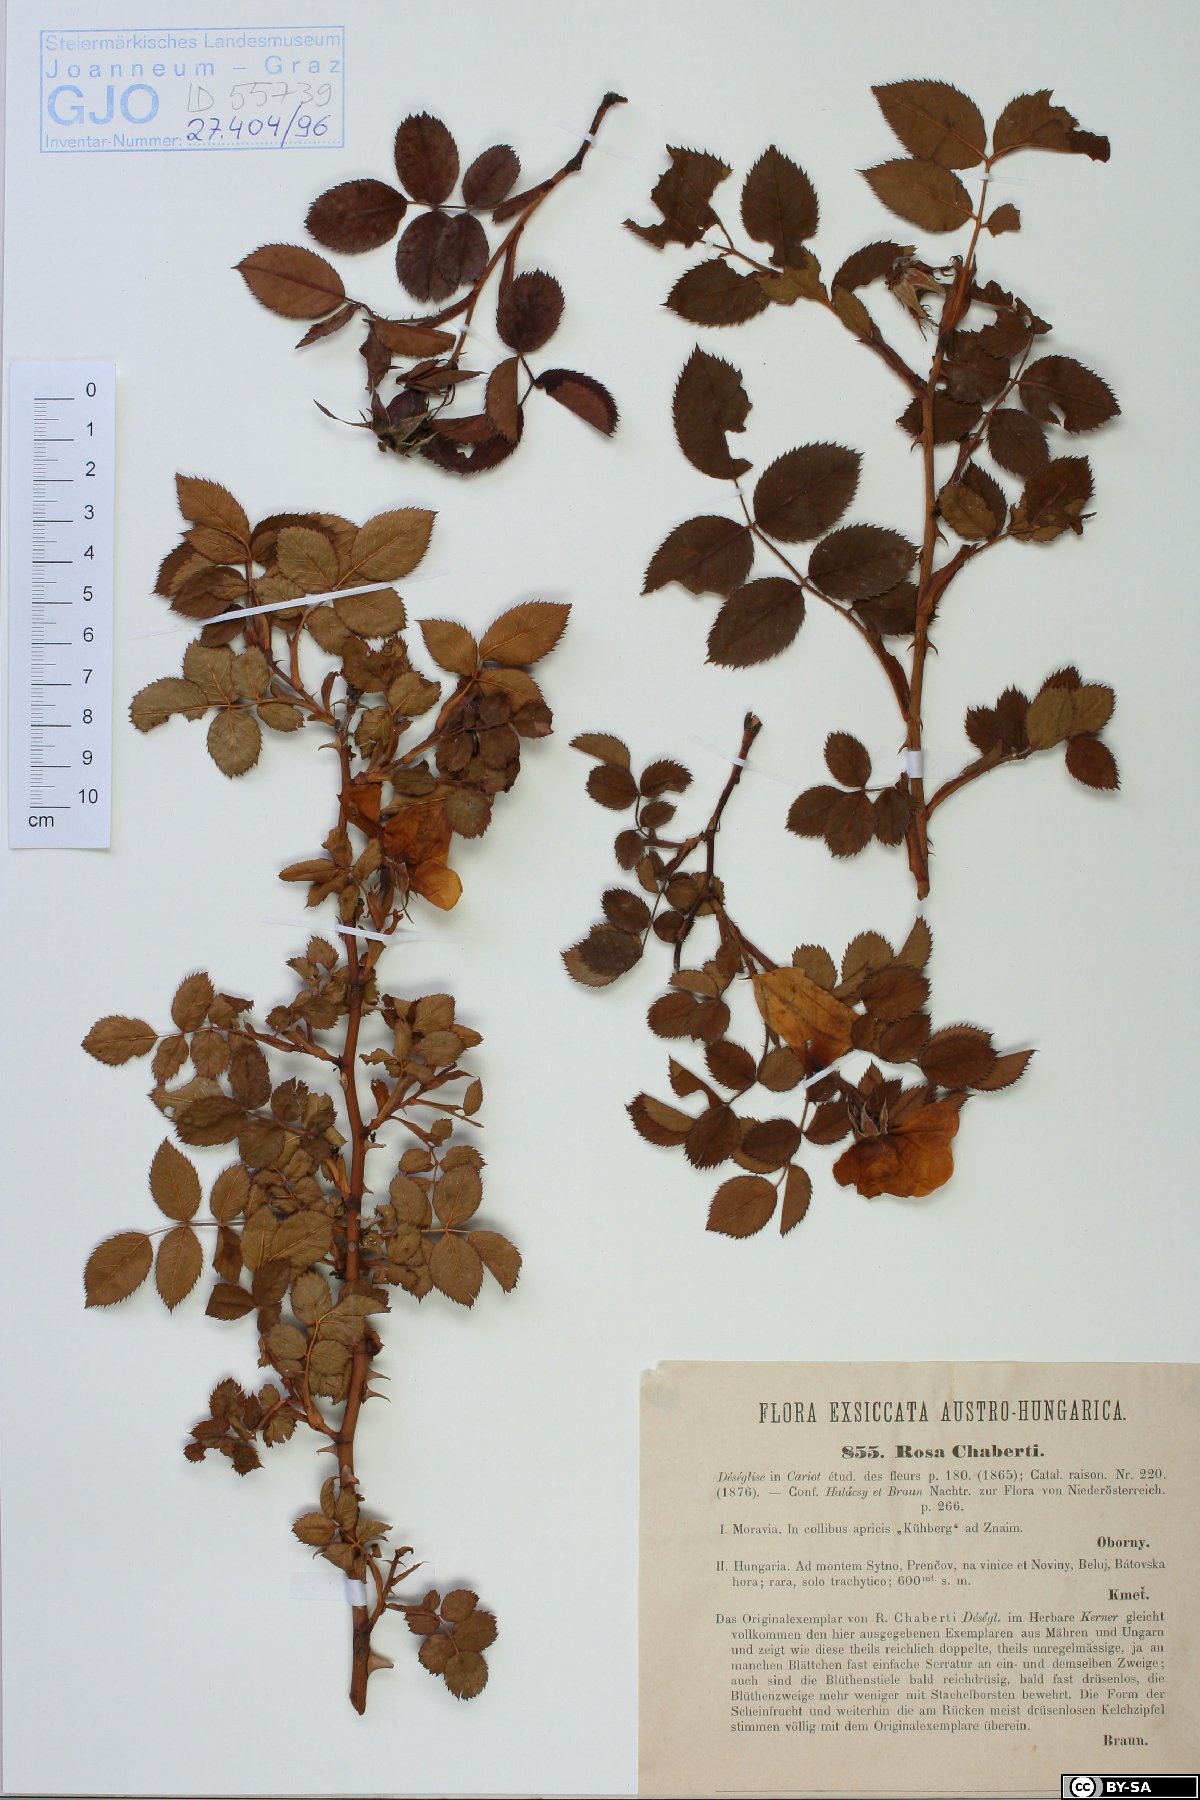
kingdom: Plantae
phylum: Tracheophyta
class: Magnoliopsida
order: Rosales
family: Rosaceae
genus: Rosa
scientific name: Rosa kosinsciana
